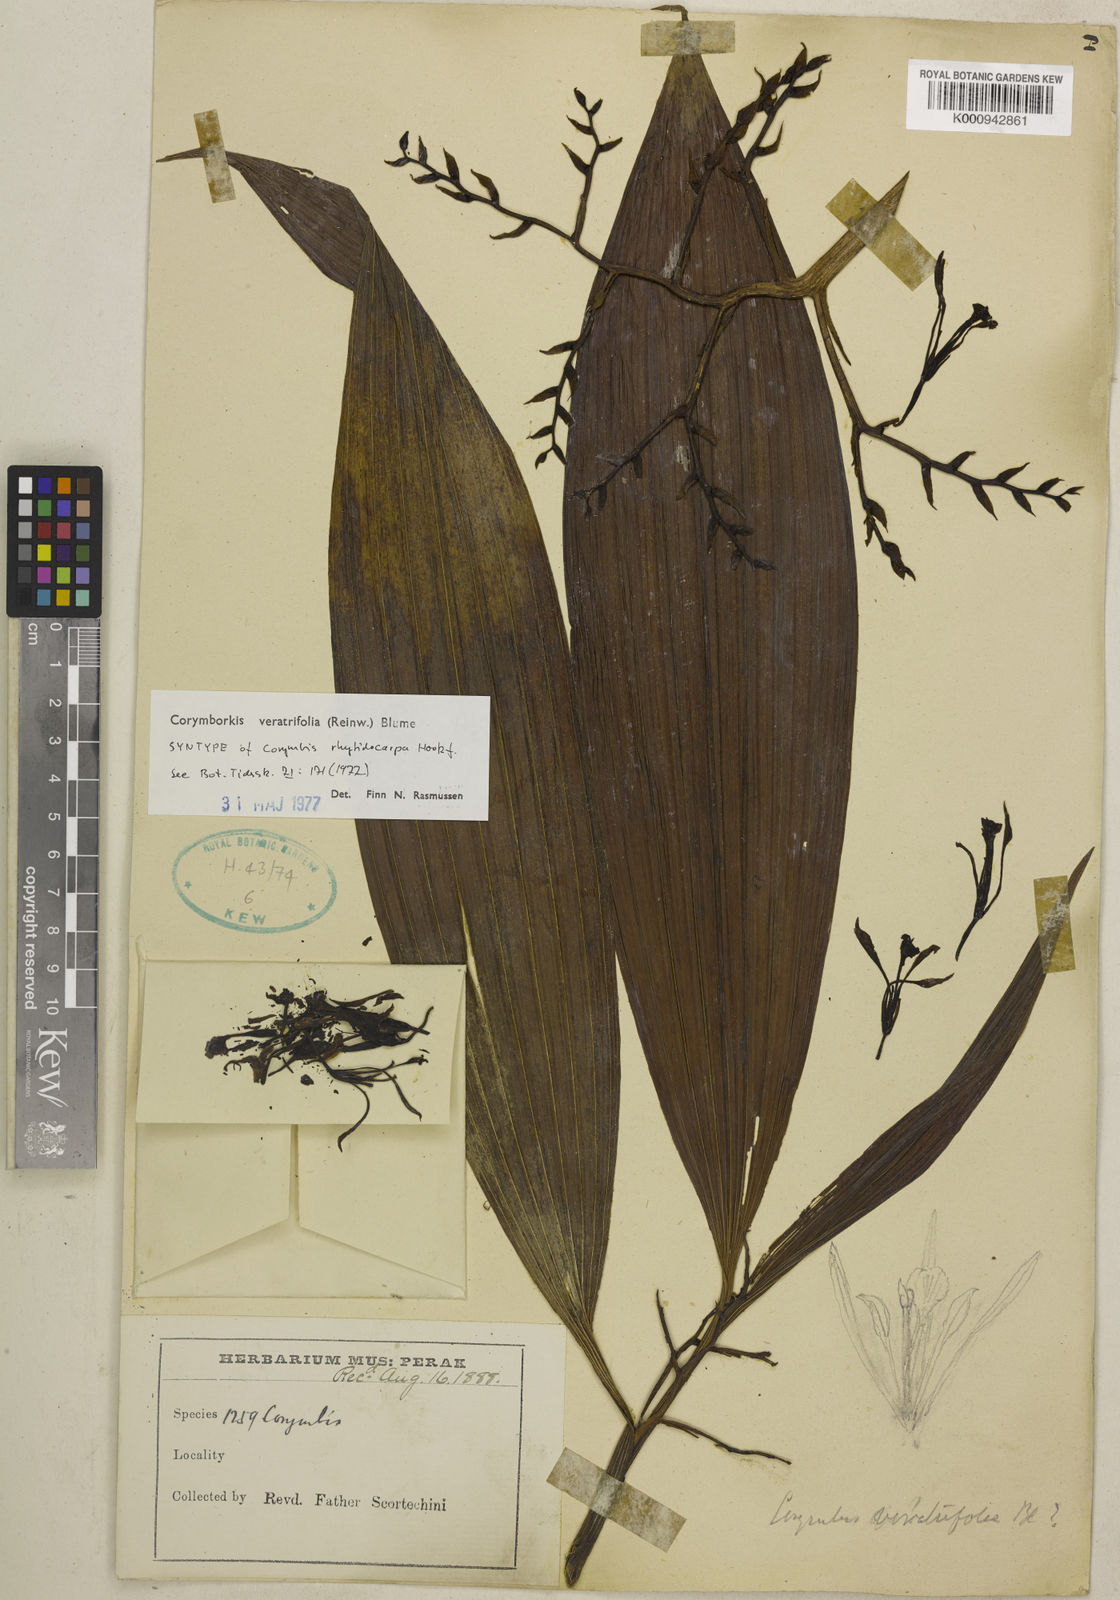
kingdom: Plantae
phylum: Tracheophyta
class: Liliopsida
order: Asparagales
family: Orchidaceae
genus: Corymborkis
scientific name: Corymborkis veratrifolia
